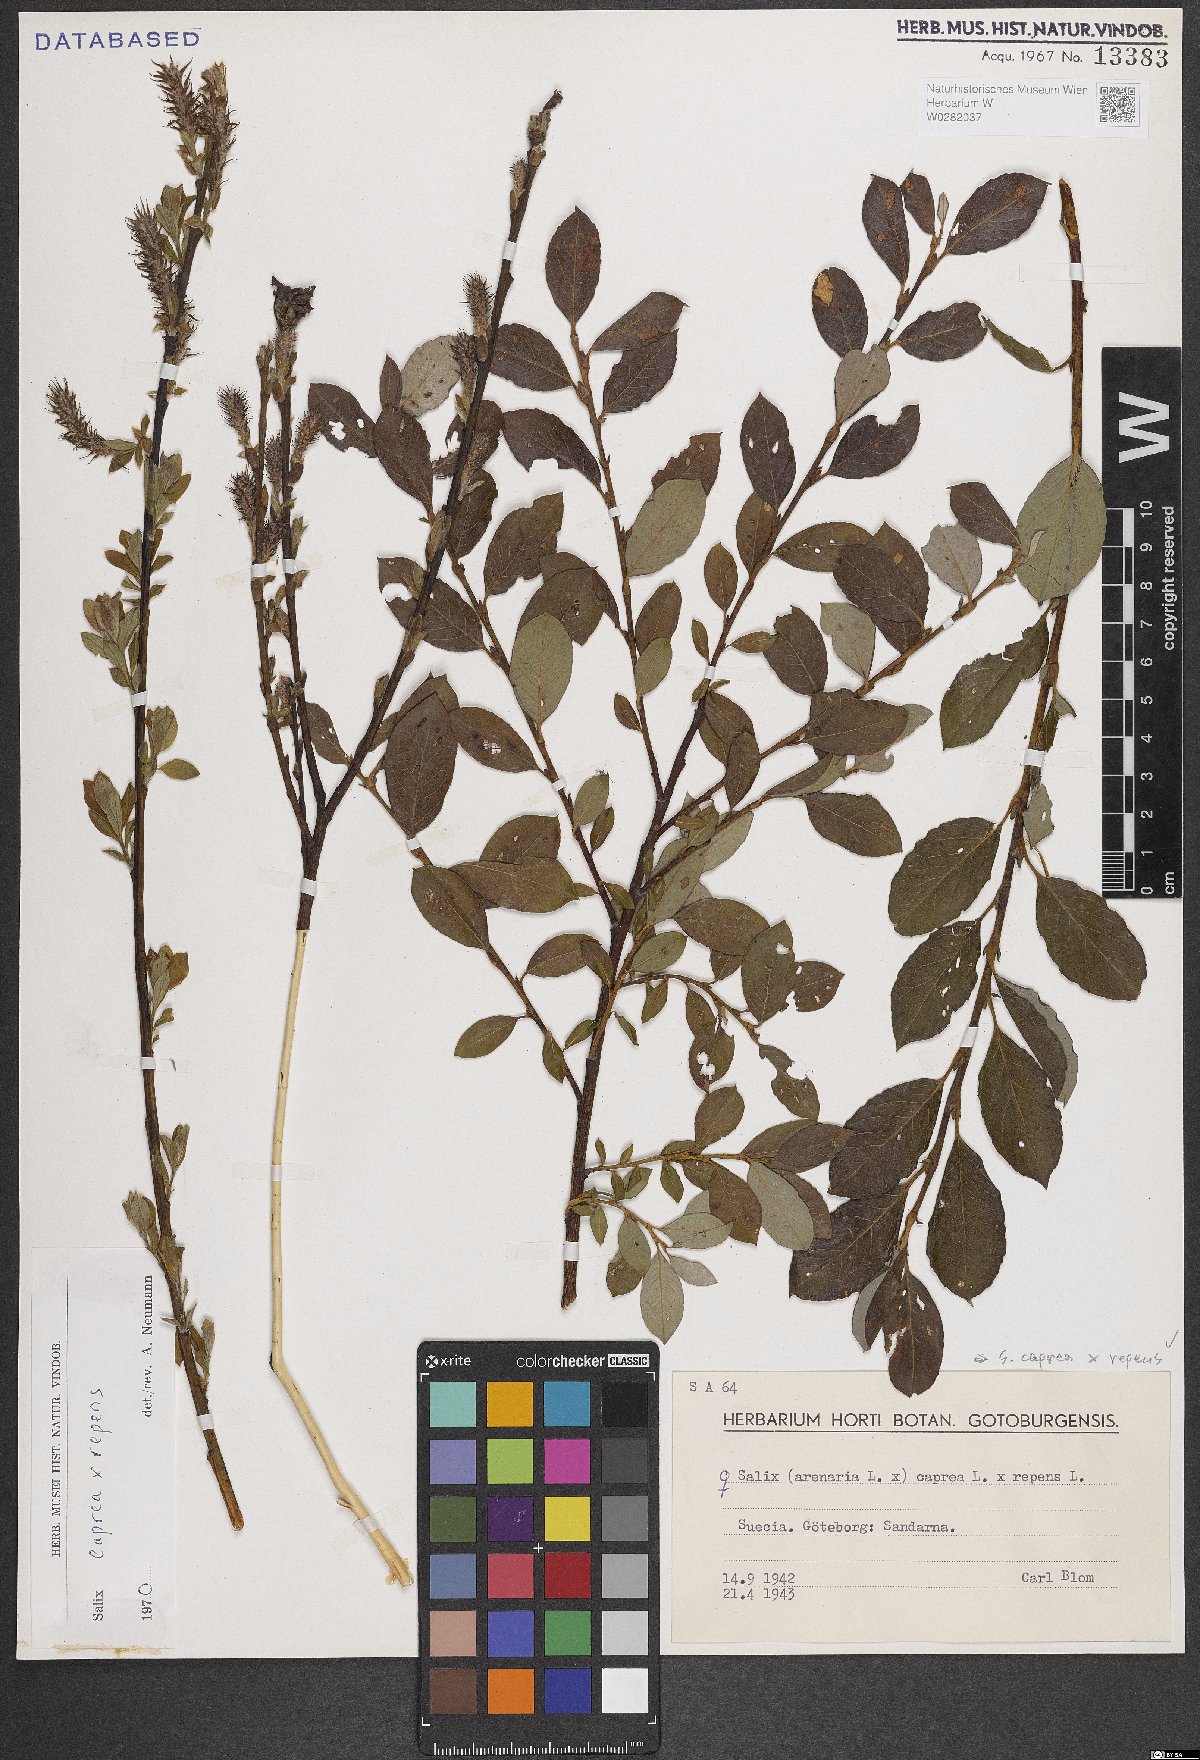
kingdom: Plantae
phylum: Tracheophyta
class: Magnoliopsida
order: Malpighiales
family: Salicaceae
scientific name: Salicaceae
